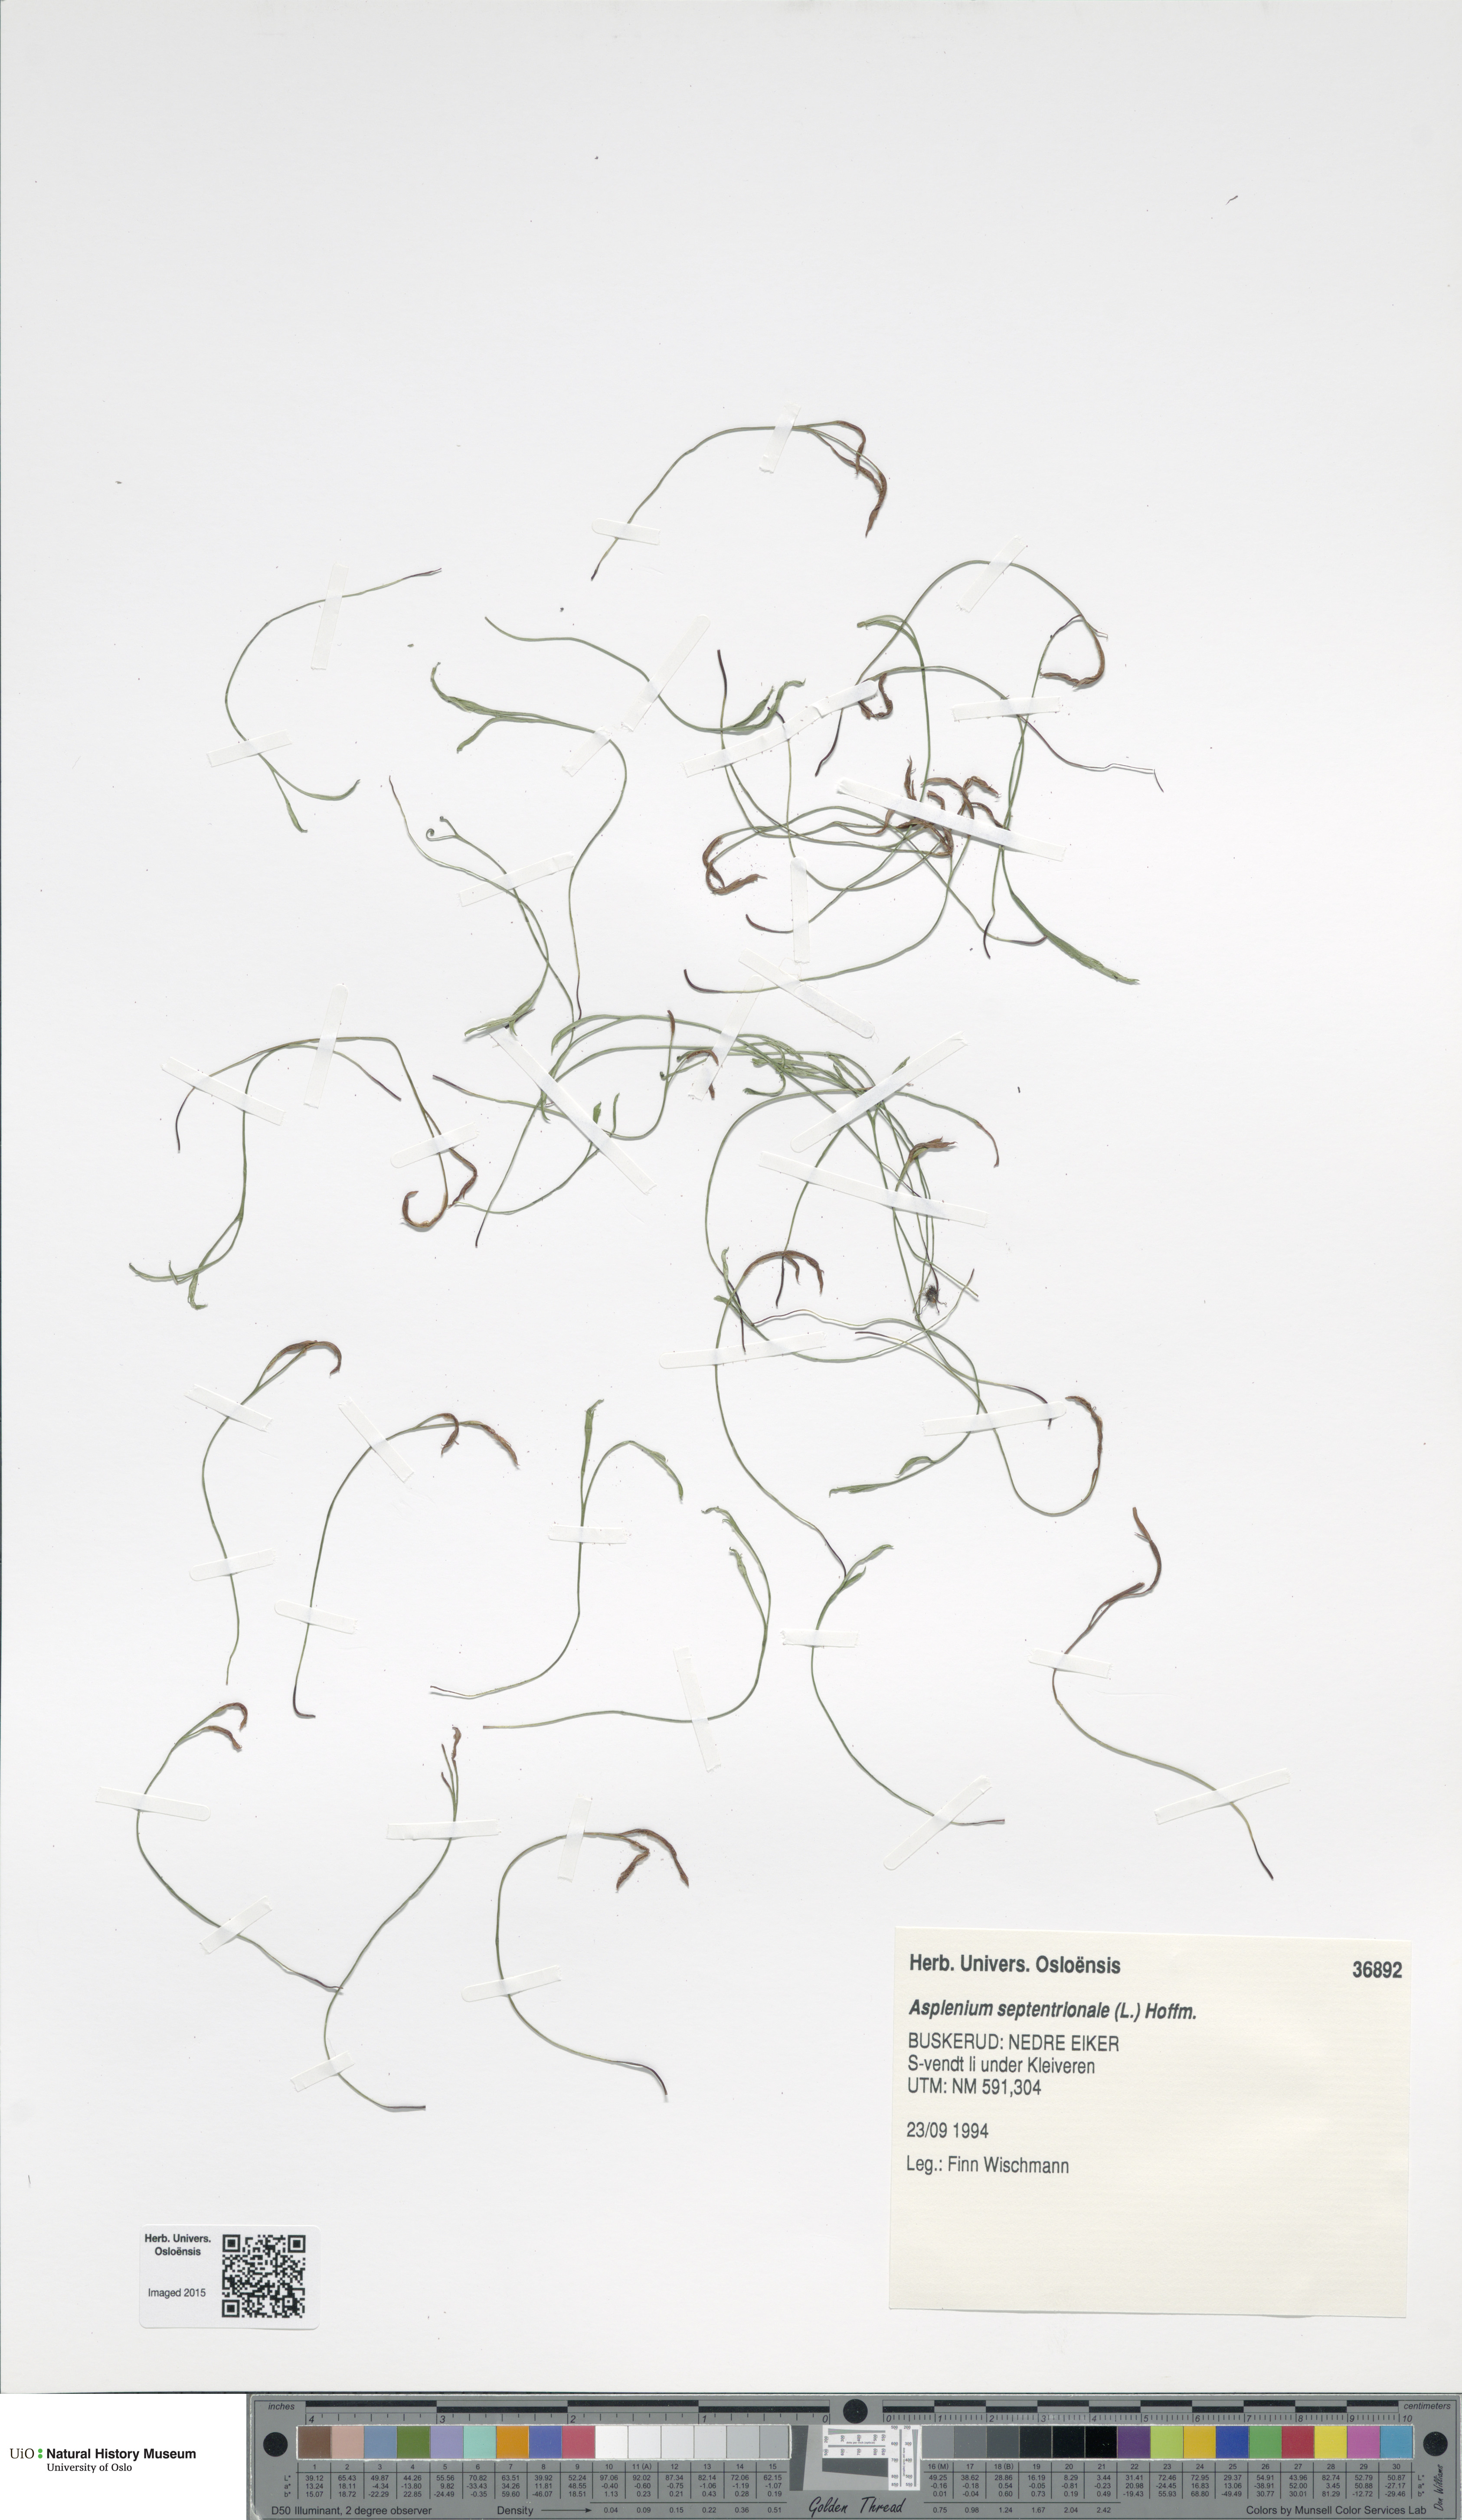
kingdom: Plantae
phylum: Tracheophyta
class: Polypodiopsida
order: Polypodiales
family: Aspleniaceae
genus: Asplenium
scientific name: Asplenium septentrionale
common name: Forked spleenwort
